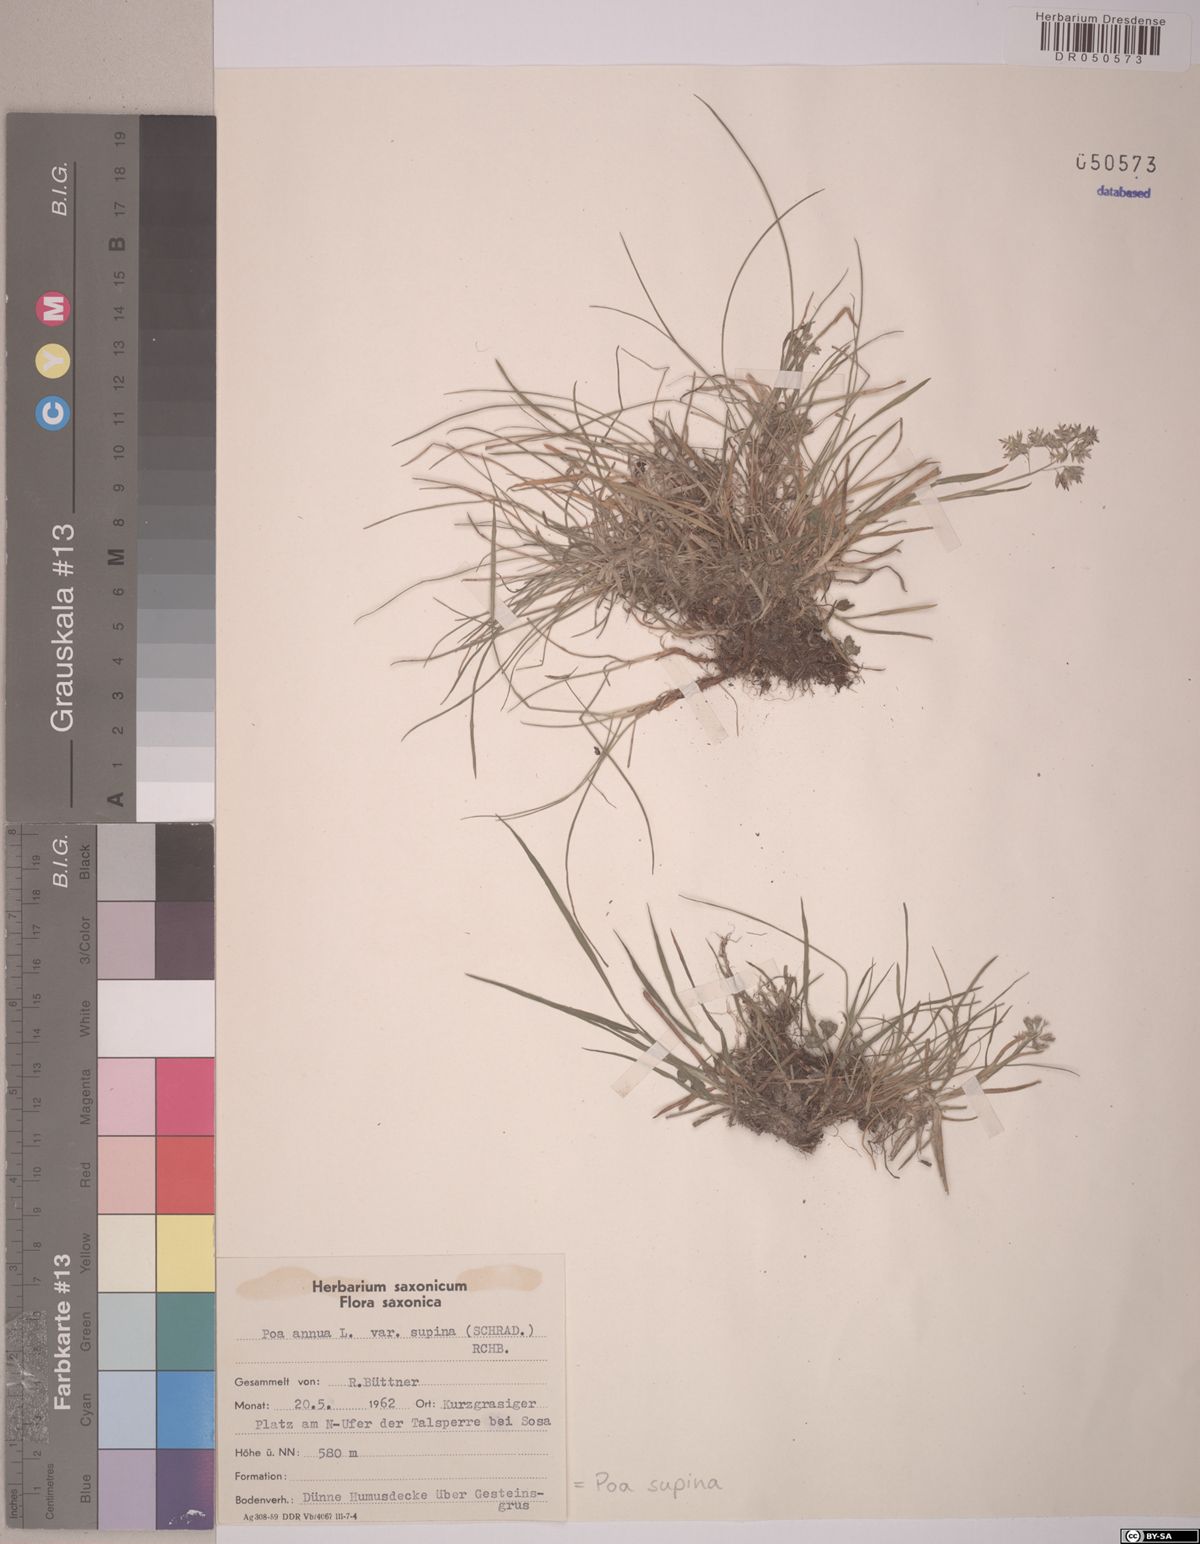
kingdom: Plantae
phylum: Tracheophyta
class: Liliopsida
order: Poales
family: Poaceae
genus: Poa
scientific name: Poa supina
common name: Supina bluegrass
